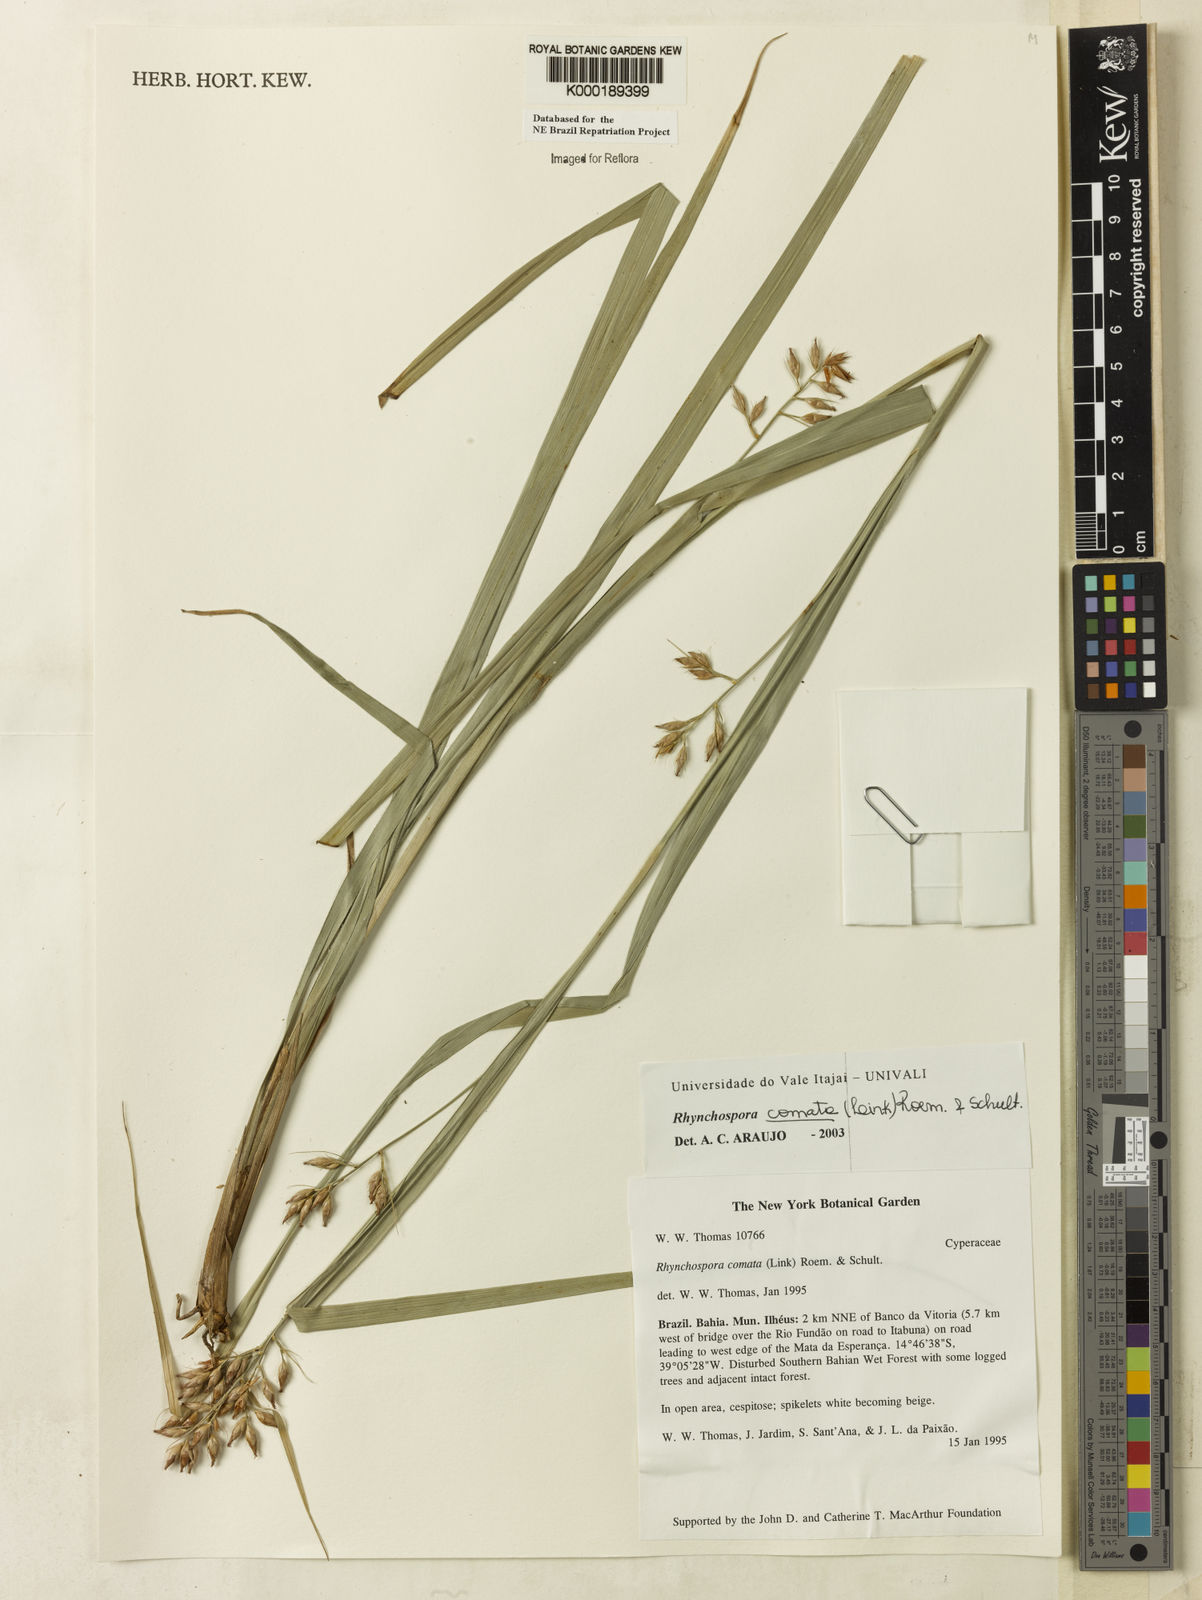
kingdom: Plantae
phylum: Tracheophyta
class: Liliopsida
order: Poales
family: Cyperaceae
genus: Rhynchospora
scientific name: Rhynchospora comata
